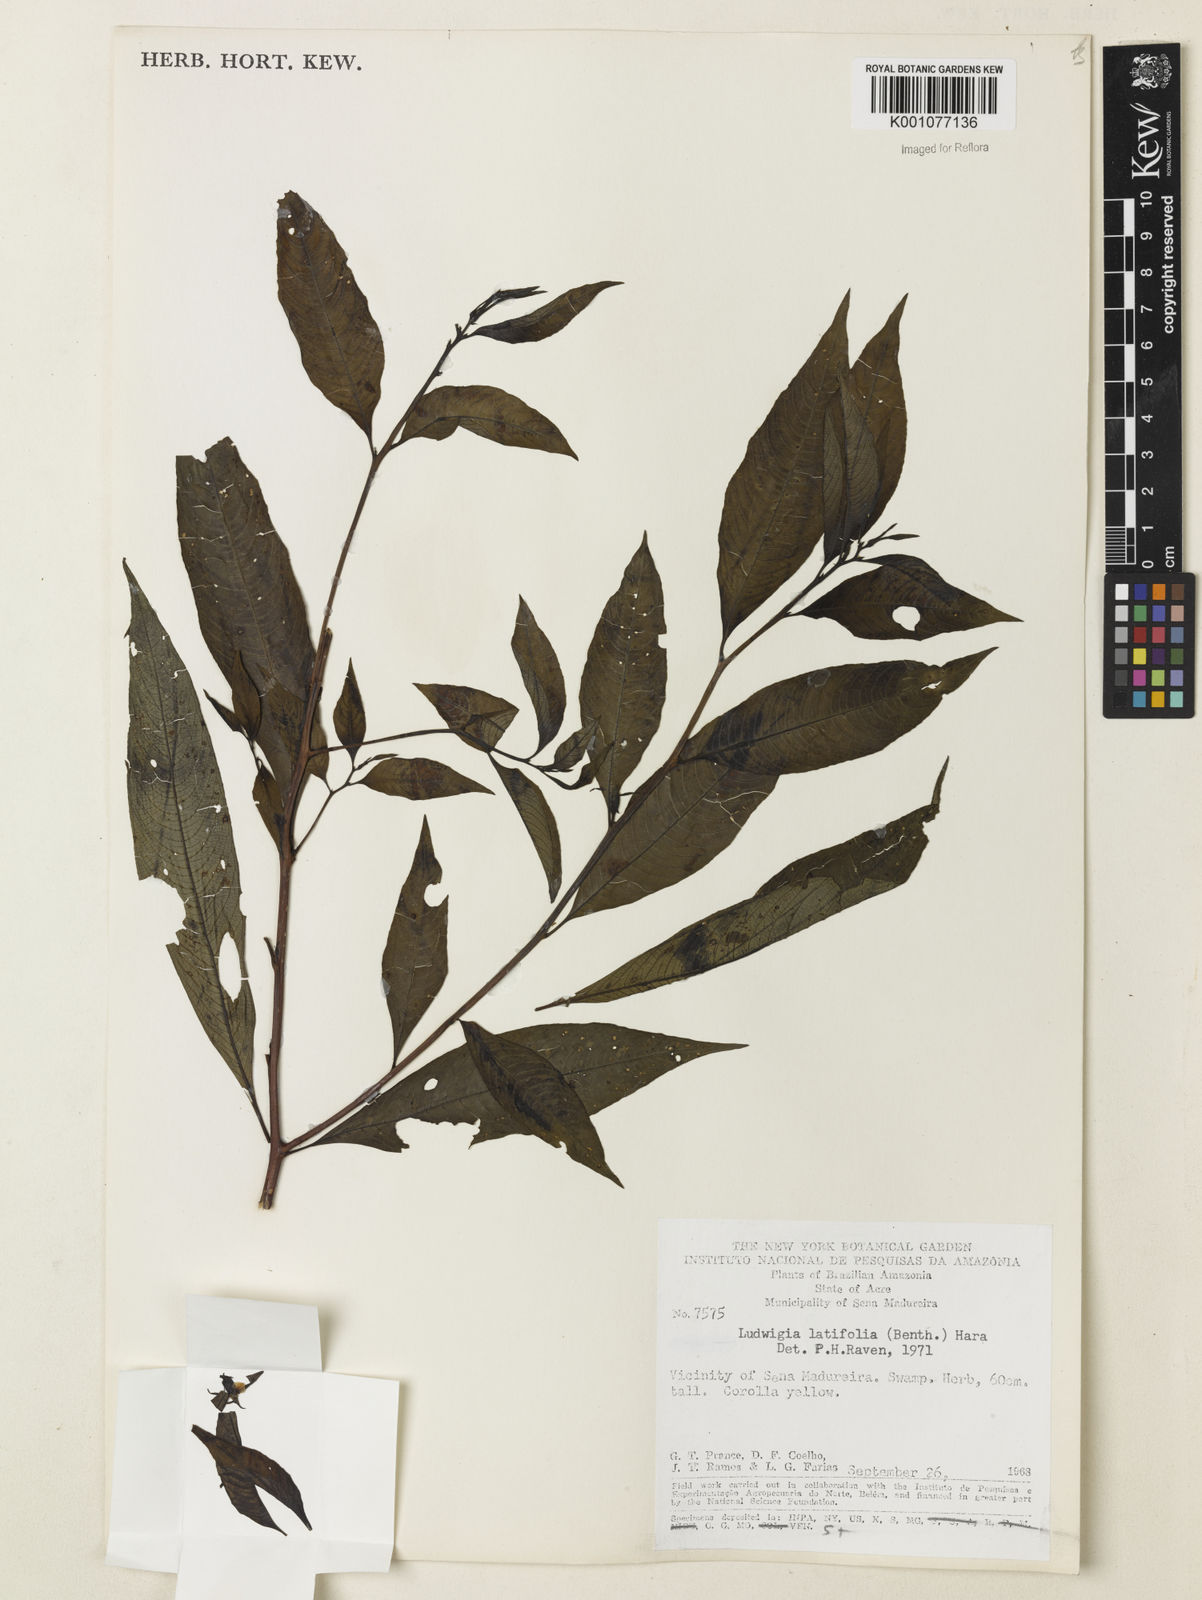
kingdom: Plantae
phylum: Tracheophyta
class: Magnoliopsida
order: Myrtales
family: Onagraceae
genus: Ludwigia
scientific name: Ludwigia latifolia
